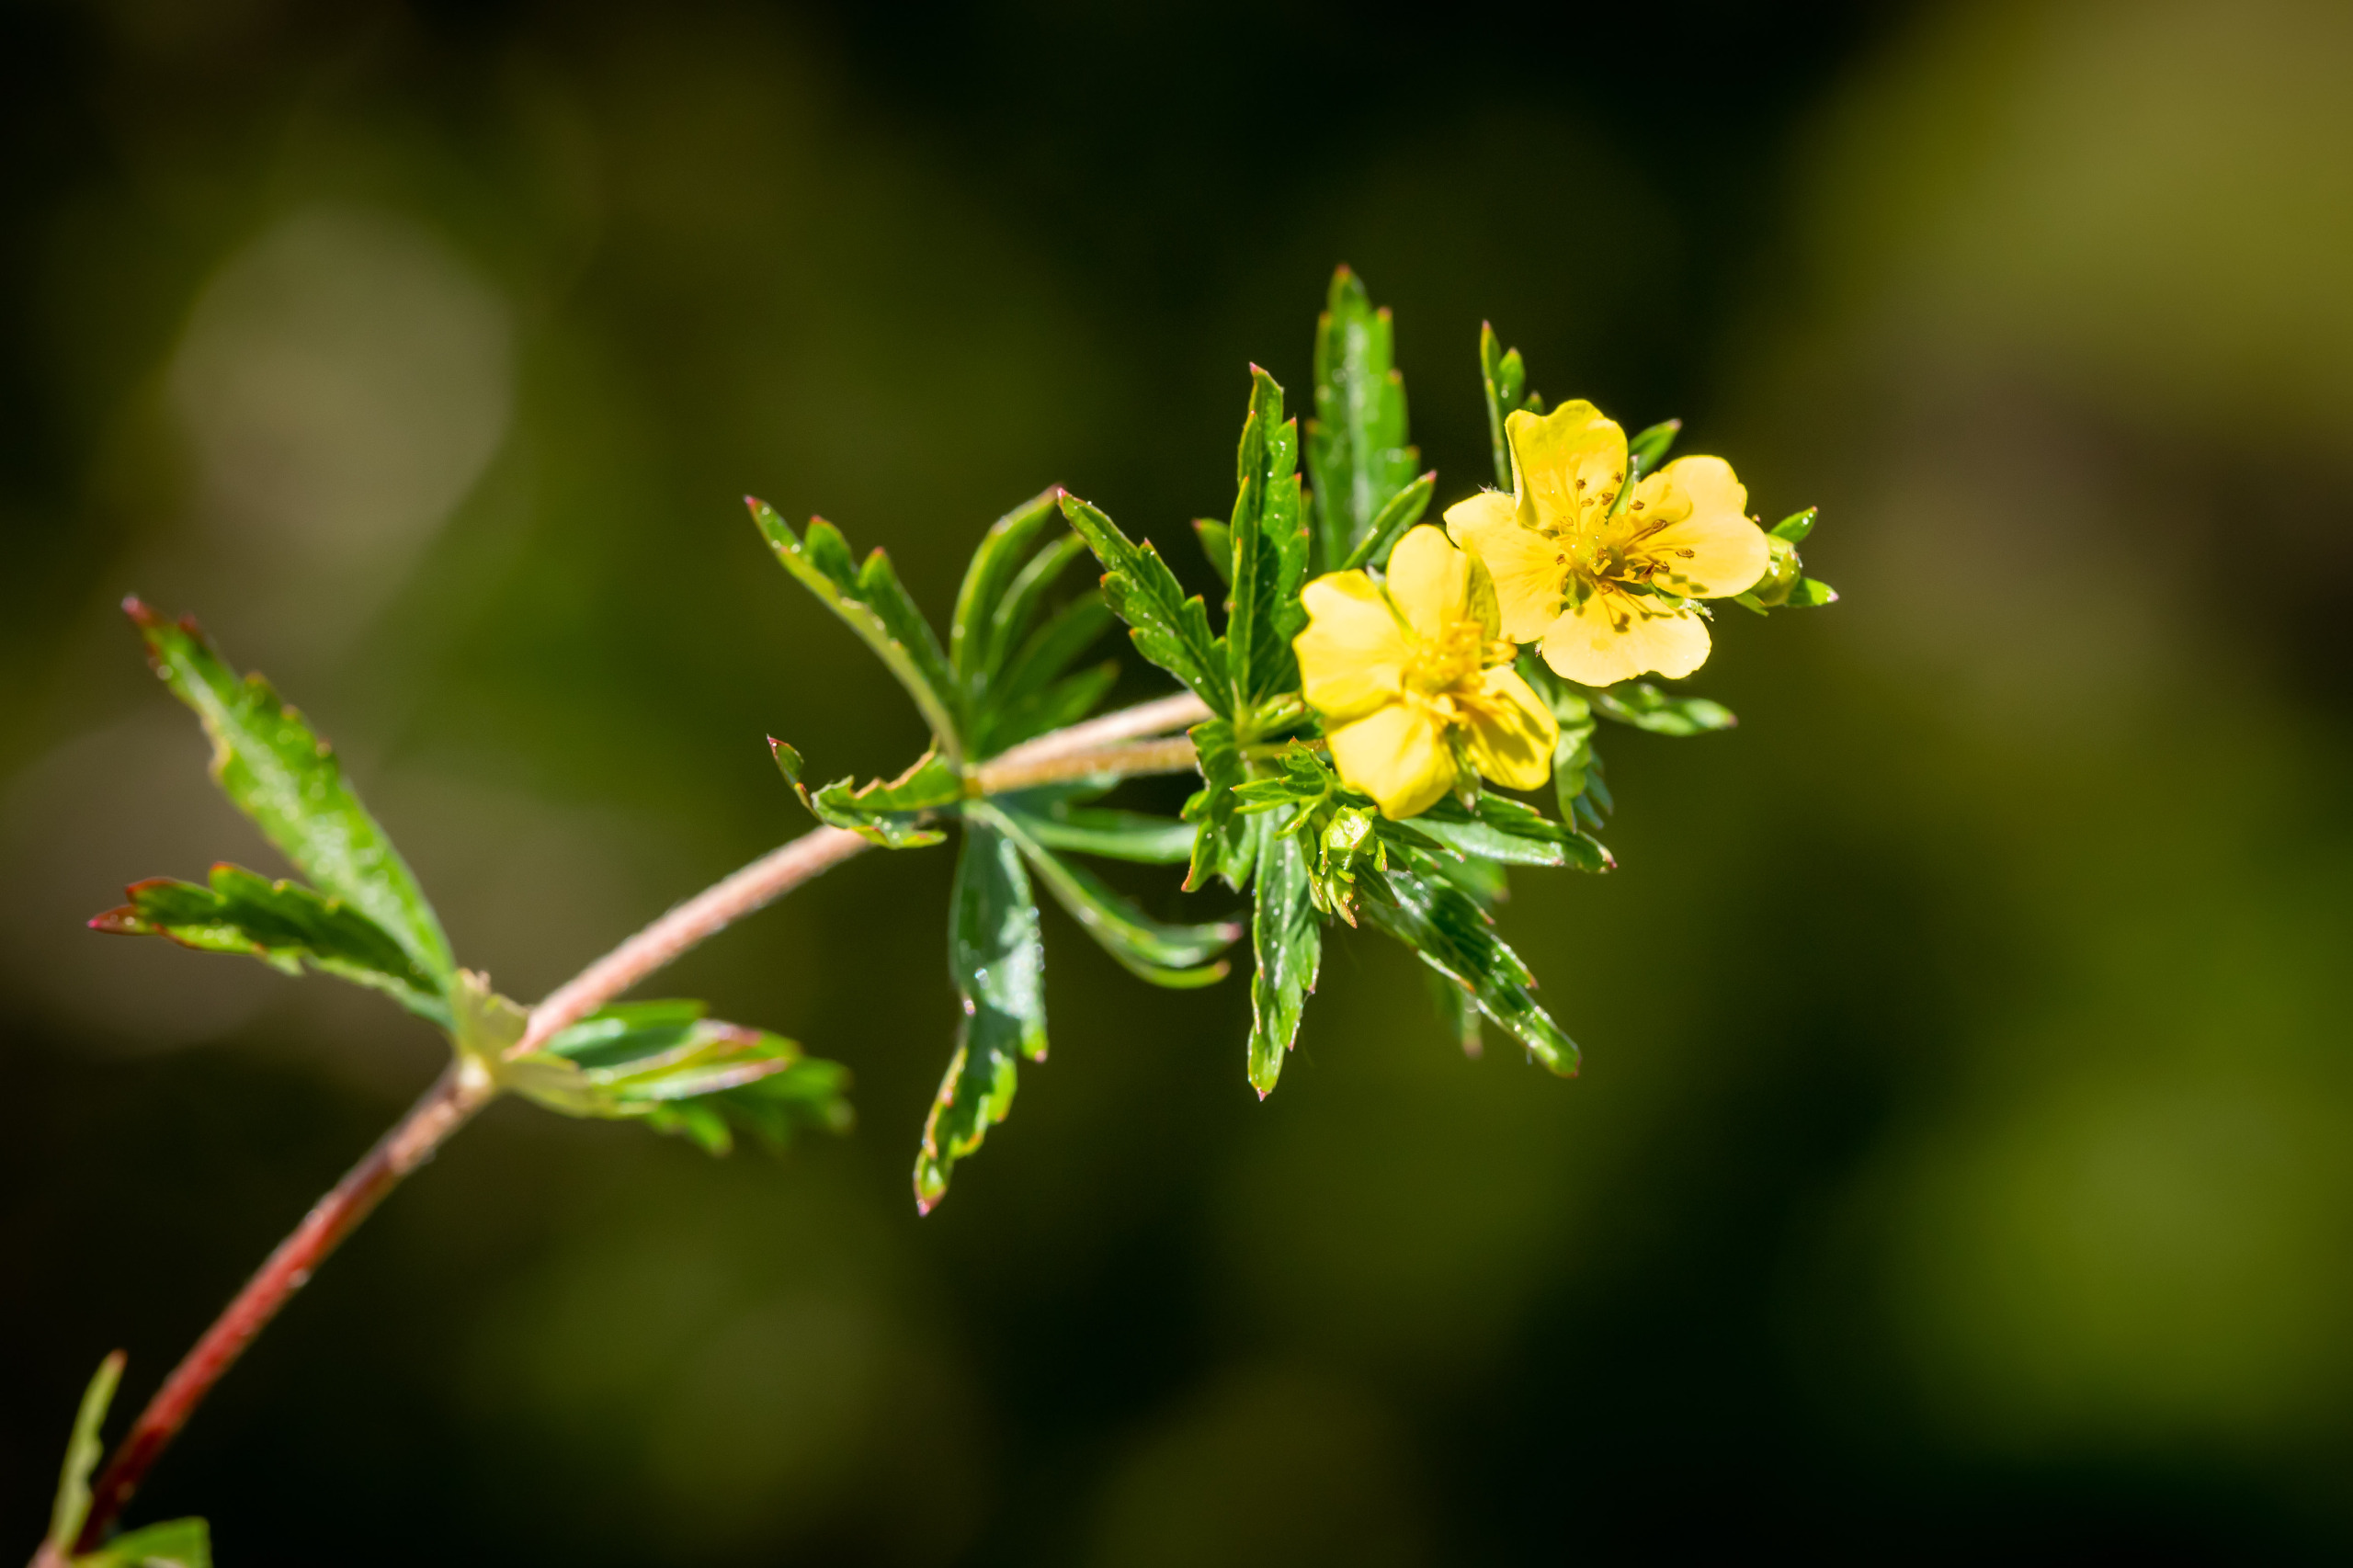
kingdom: Plantae
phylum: Tracheophyta
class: Magnoliopsida
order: Rosales
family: Rosaceae
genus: Potentilla
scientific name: Potentilla erecta
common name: Tormentil
